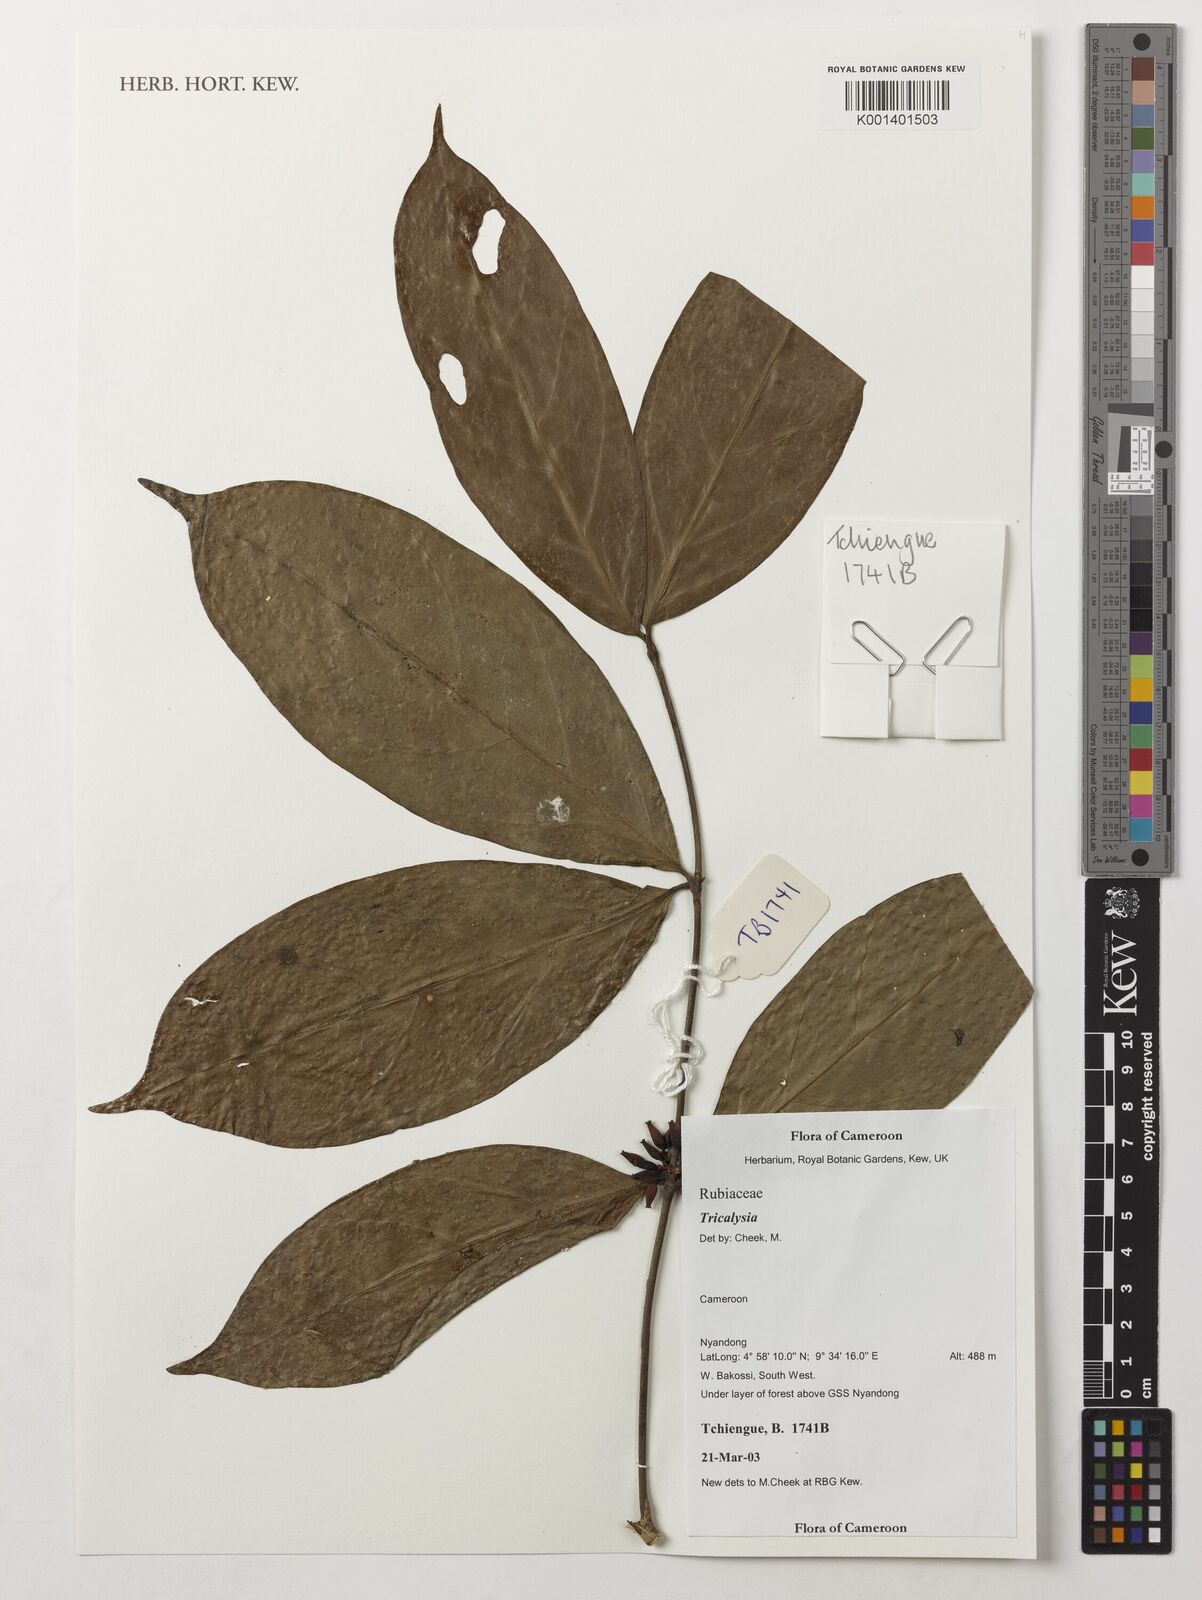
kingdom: Plantae
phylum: Tracheophyta
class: Magnoliopsida
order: Gentianales
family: Rubiaceae
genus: Tricalysia
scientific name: Tricalysia
